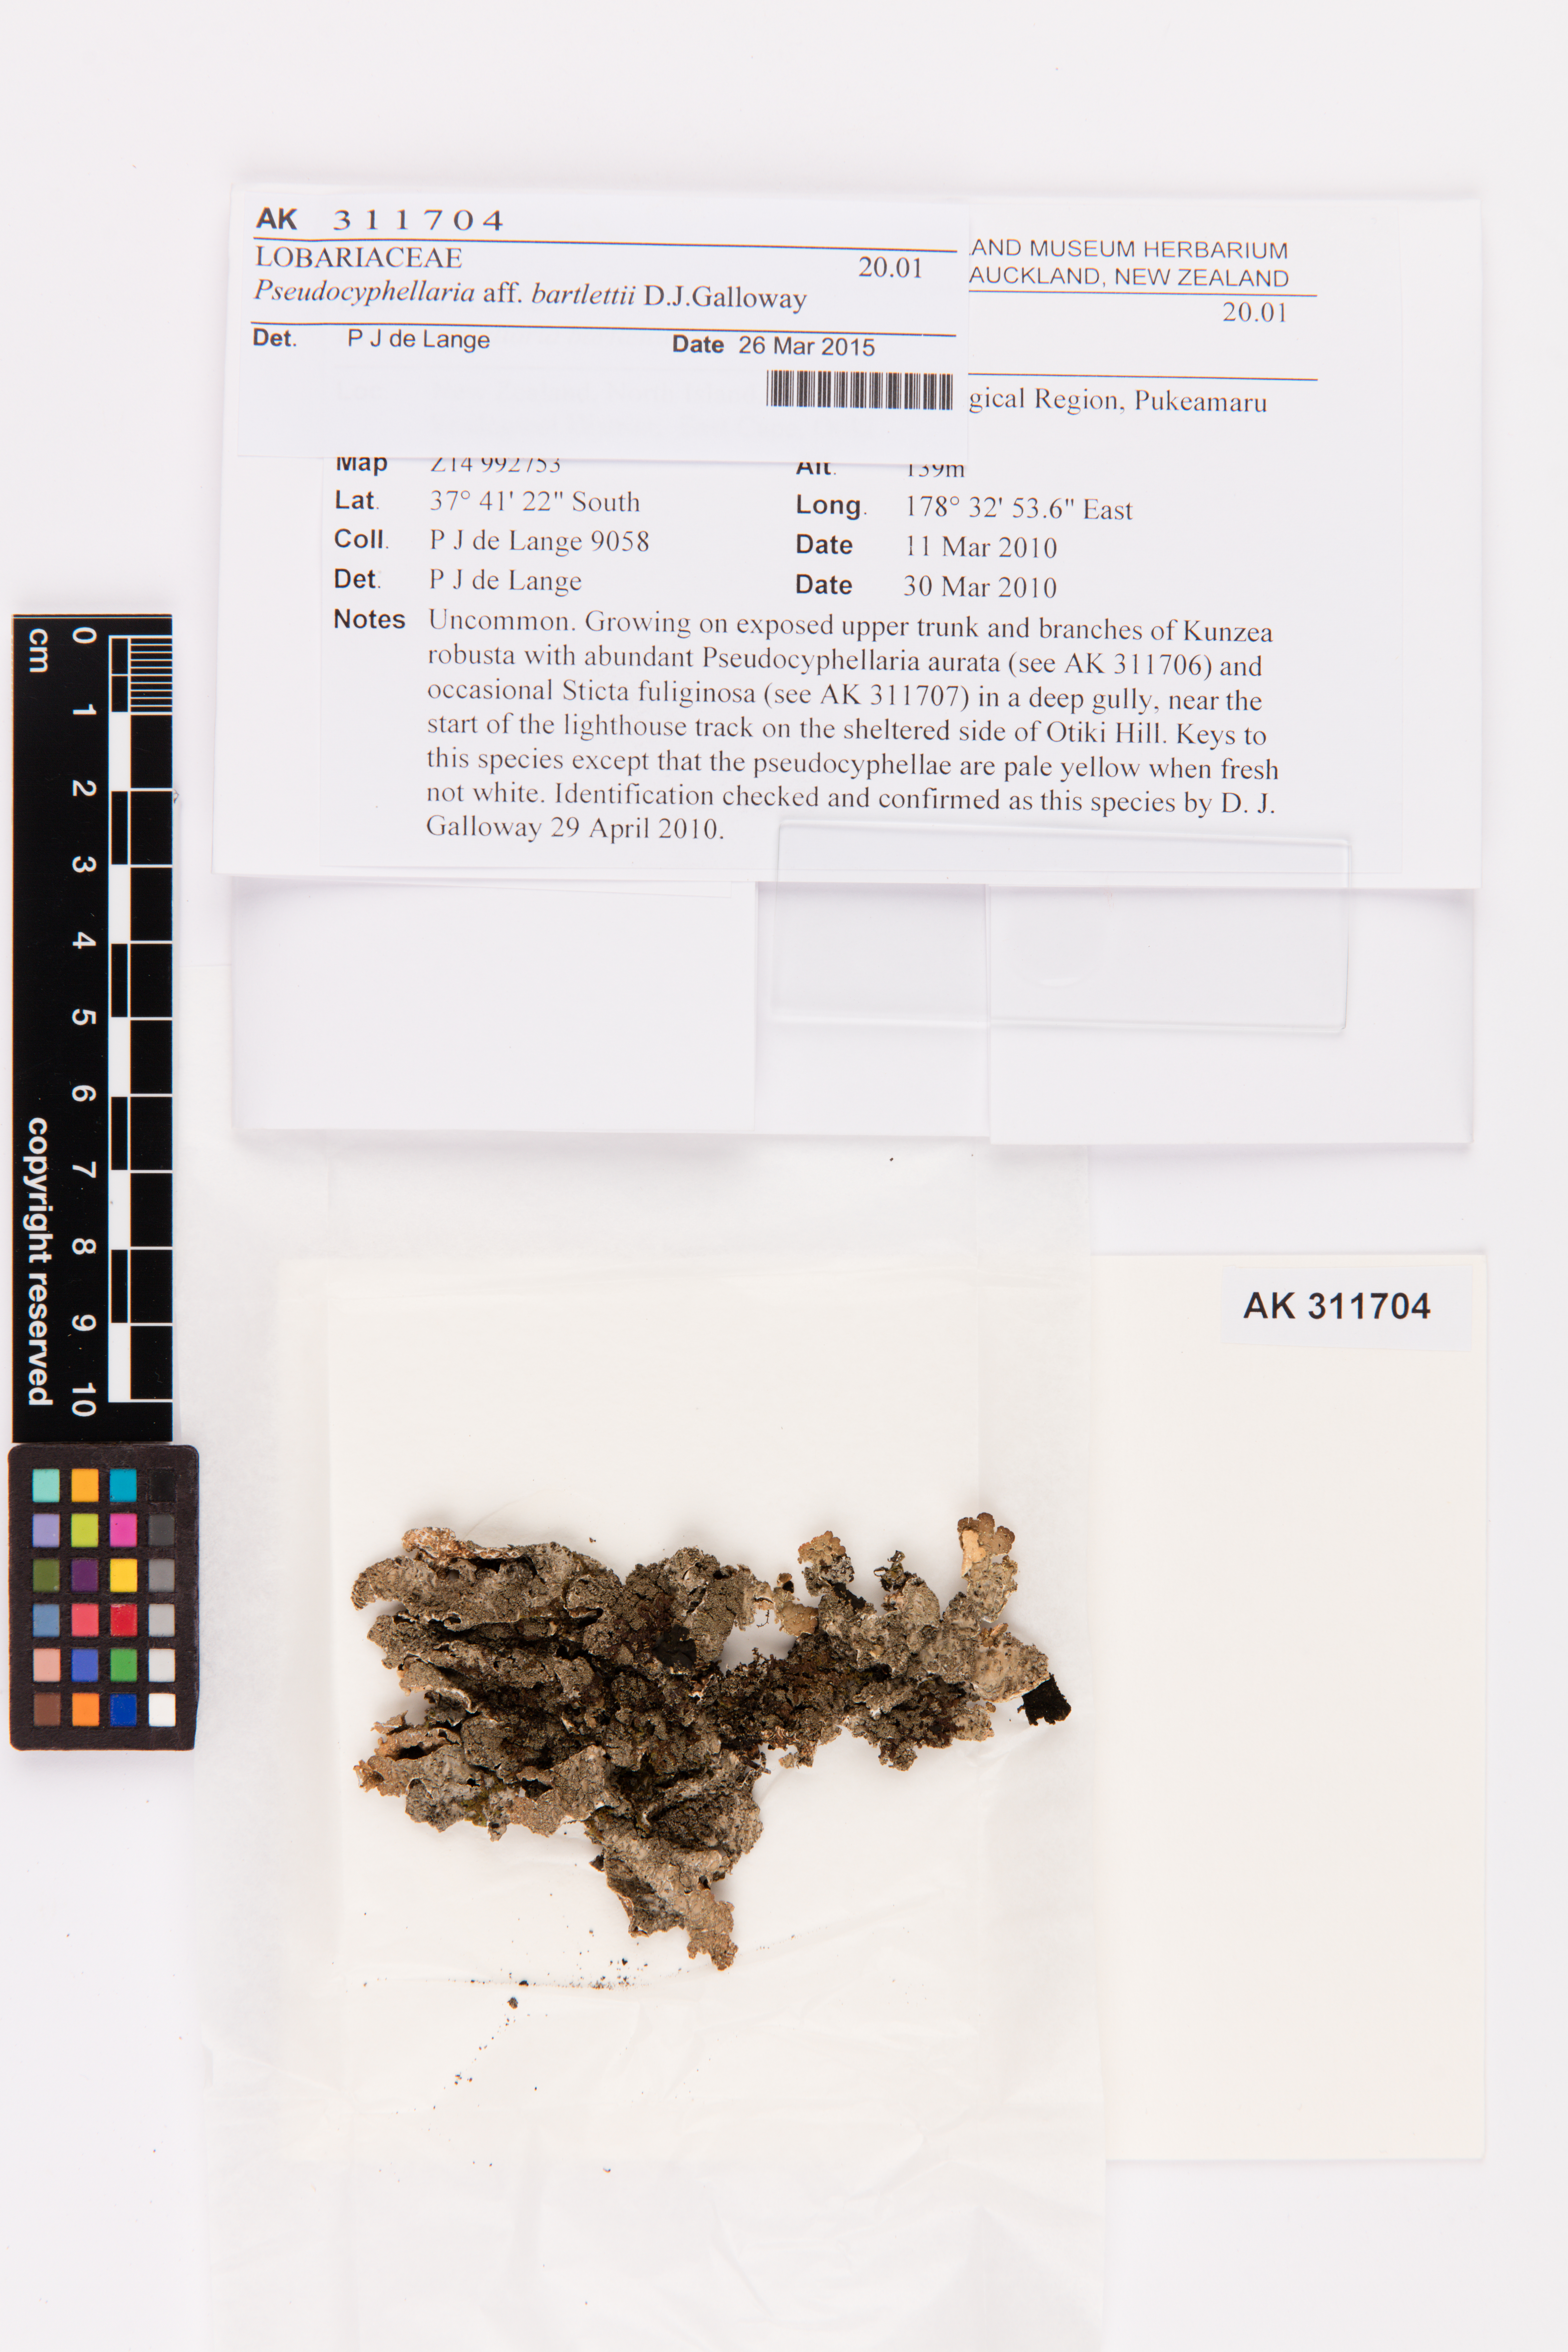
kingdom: Fungi
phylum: Ascomycota
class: Lecanoromycetes
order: Peltigerales
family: Lobariaceae
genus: Pseudocyphellaria
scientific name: Pseudocyphellaria bartlettii
